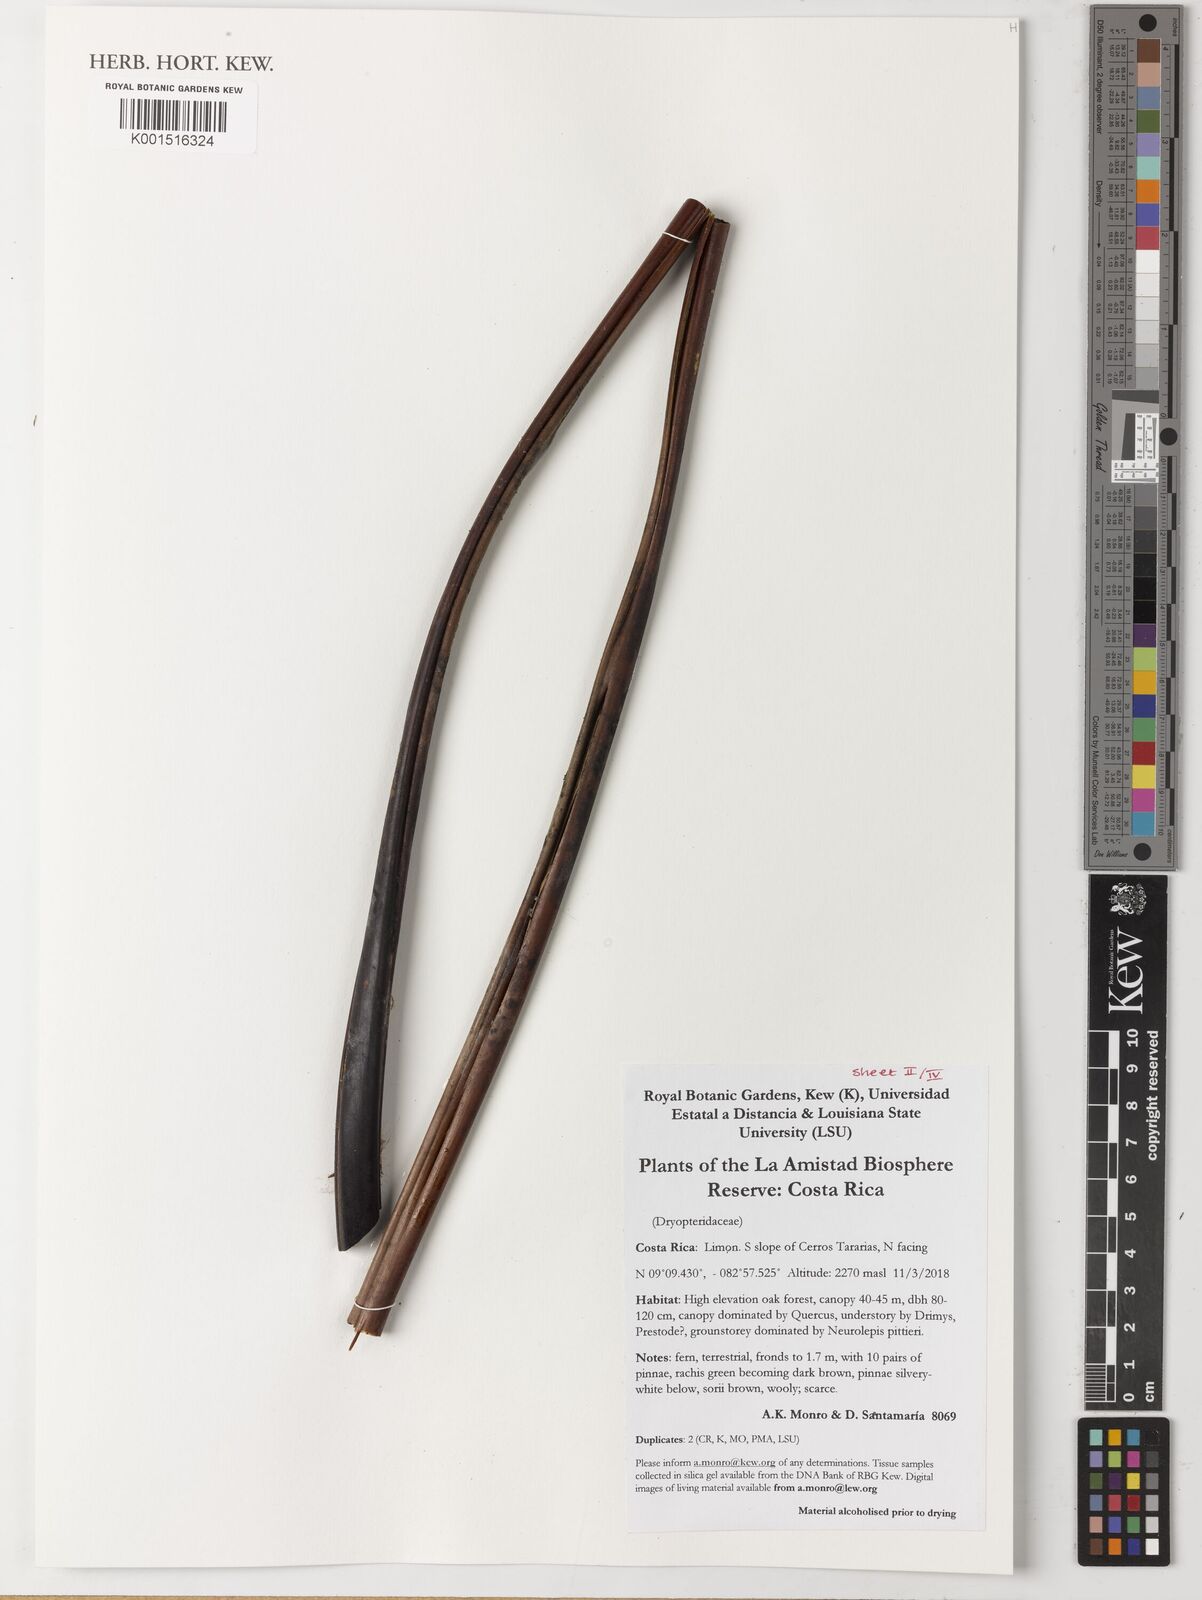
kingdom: Plantae
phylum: Tracheophyta
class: Polypodiopsida
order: Polypodiales
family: Dryopteridaceae
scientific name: Dryopteridaceae
